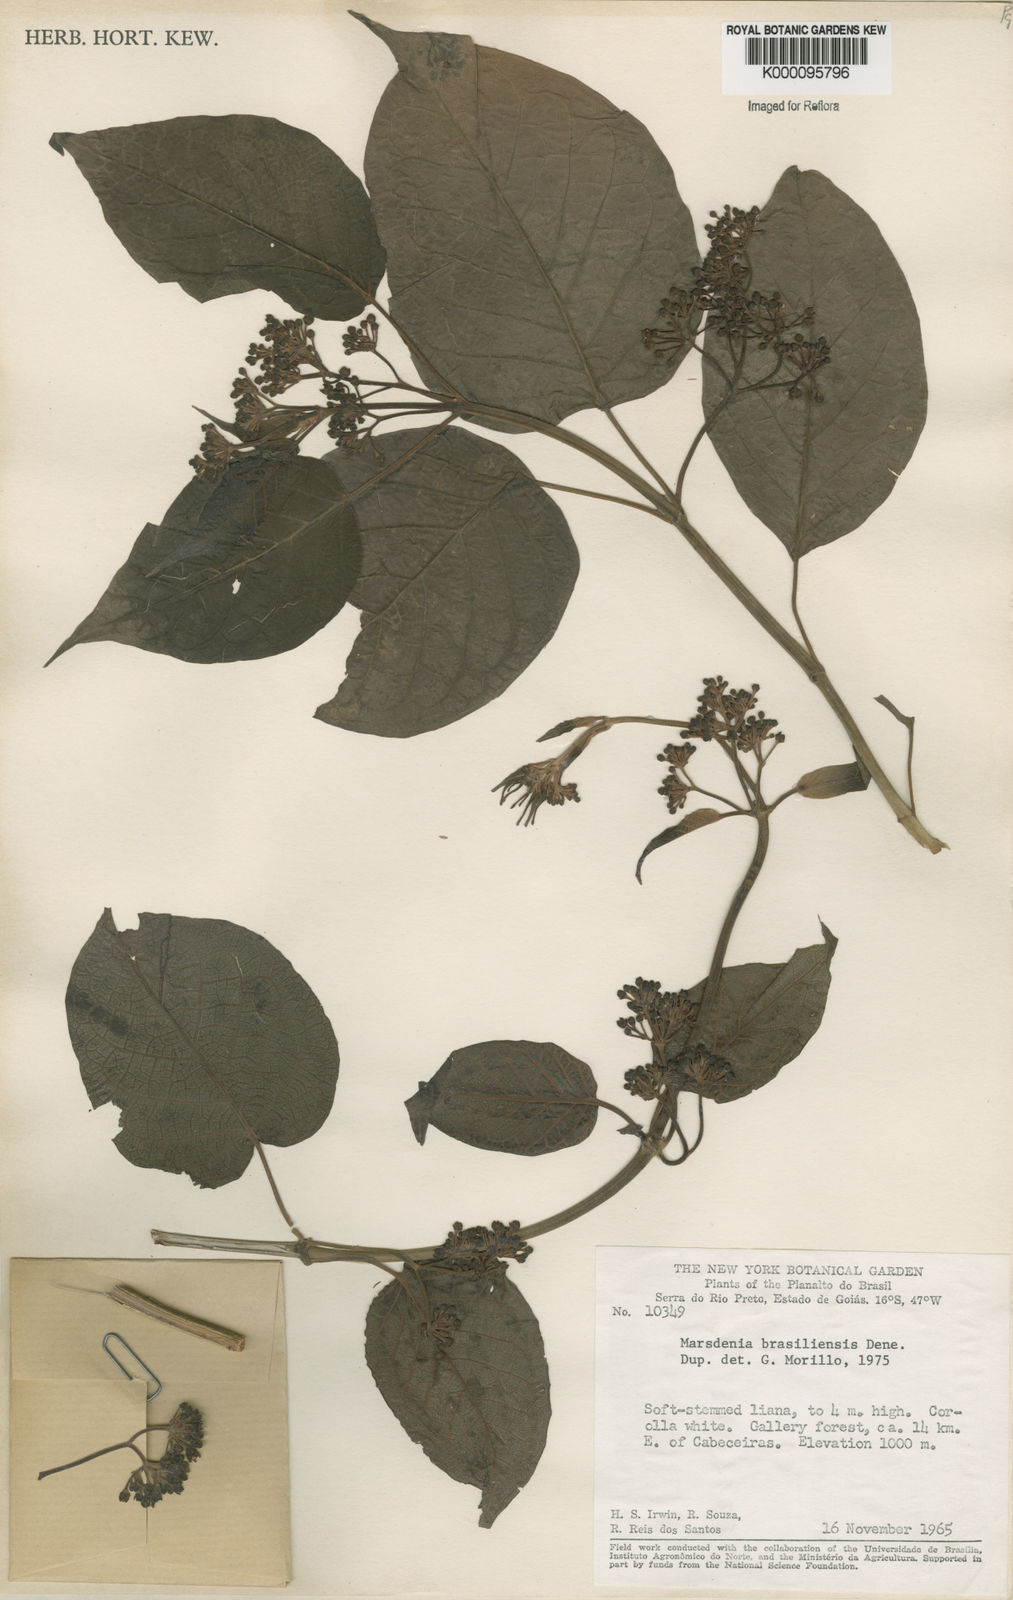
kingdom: Plantae
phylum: Tracheophyta
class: Magnoliopsida
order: Gentianales
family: Apocynaceae
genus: Ruehssia
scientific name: Ruehssia brasiliensis
